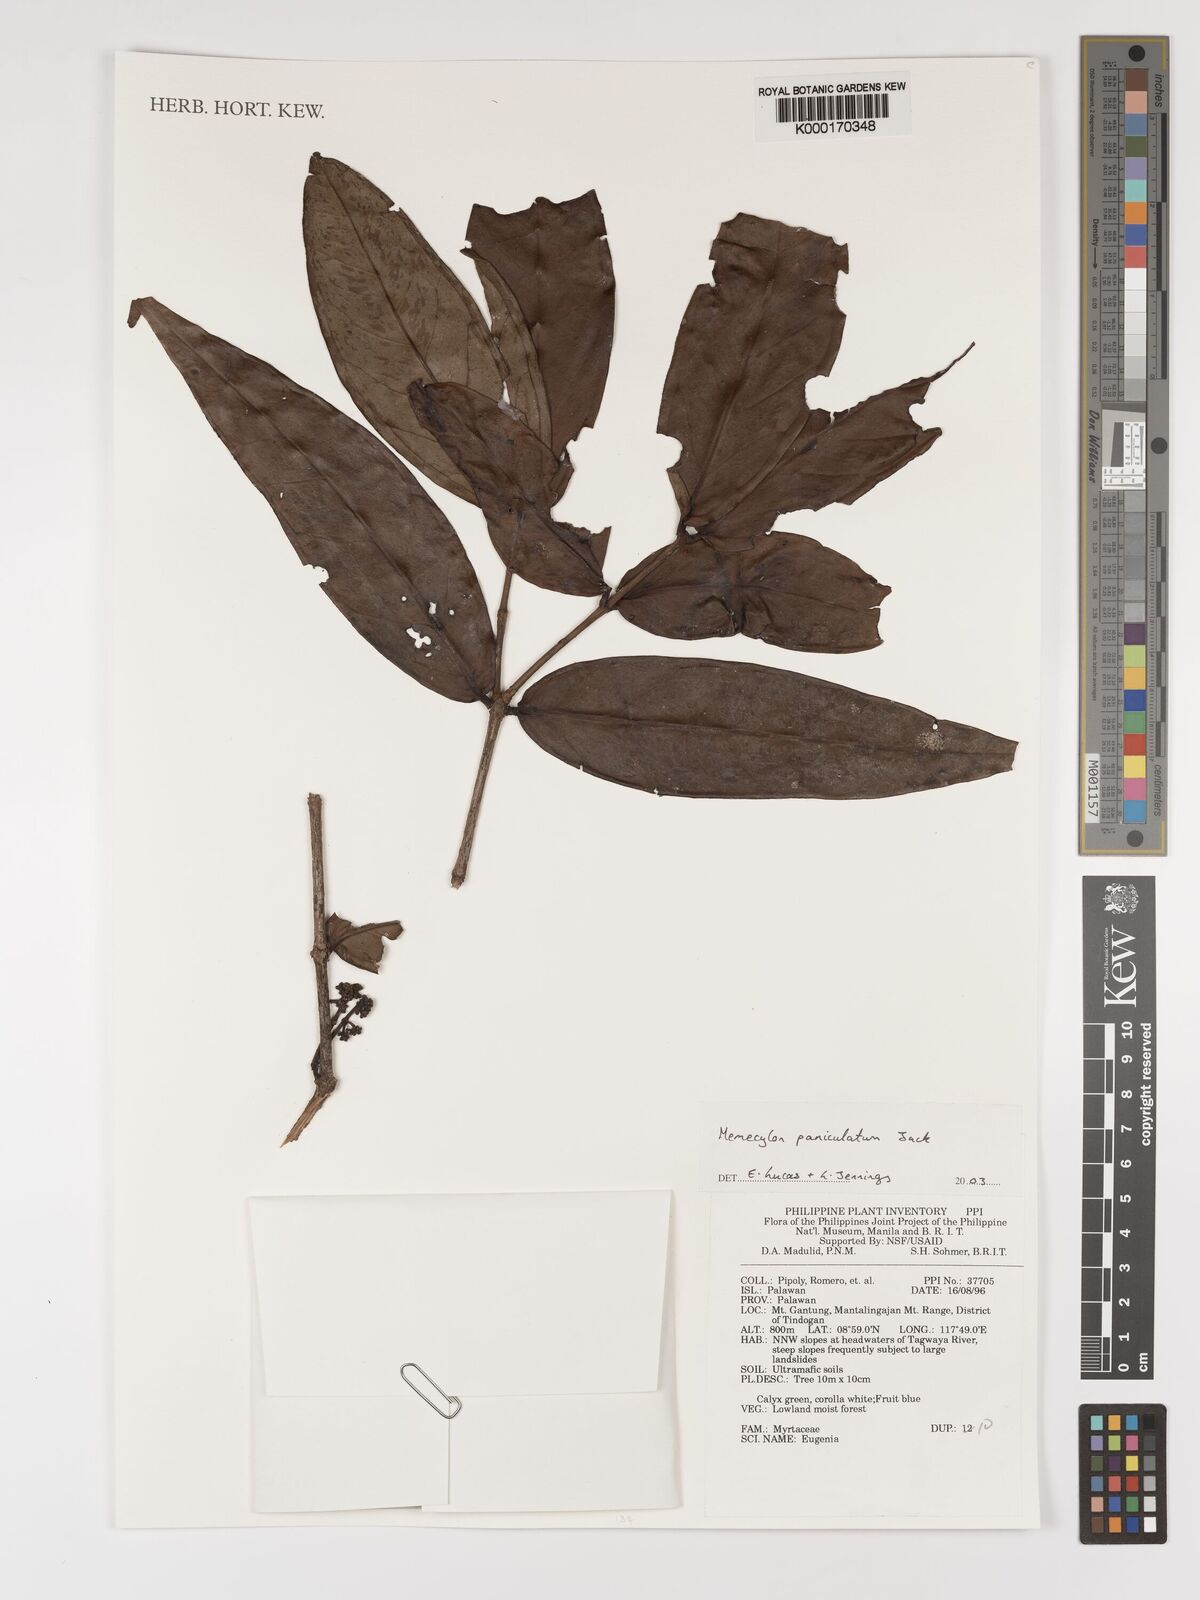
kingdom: Plantae
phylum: Tracheophyta
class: Magnoliopsida
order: Myrtales
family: Melastomataceae
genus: Memecylon
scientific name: Memecylon paniculatum
